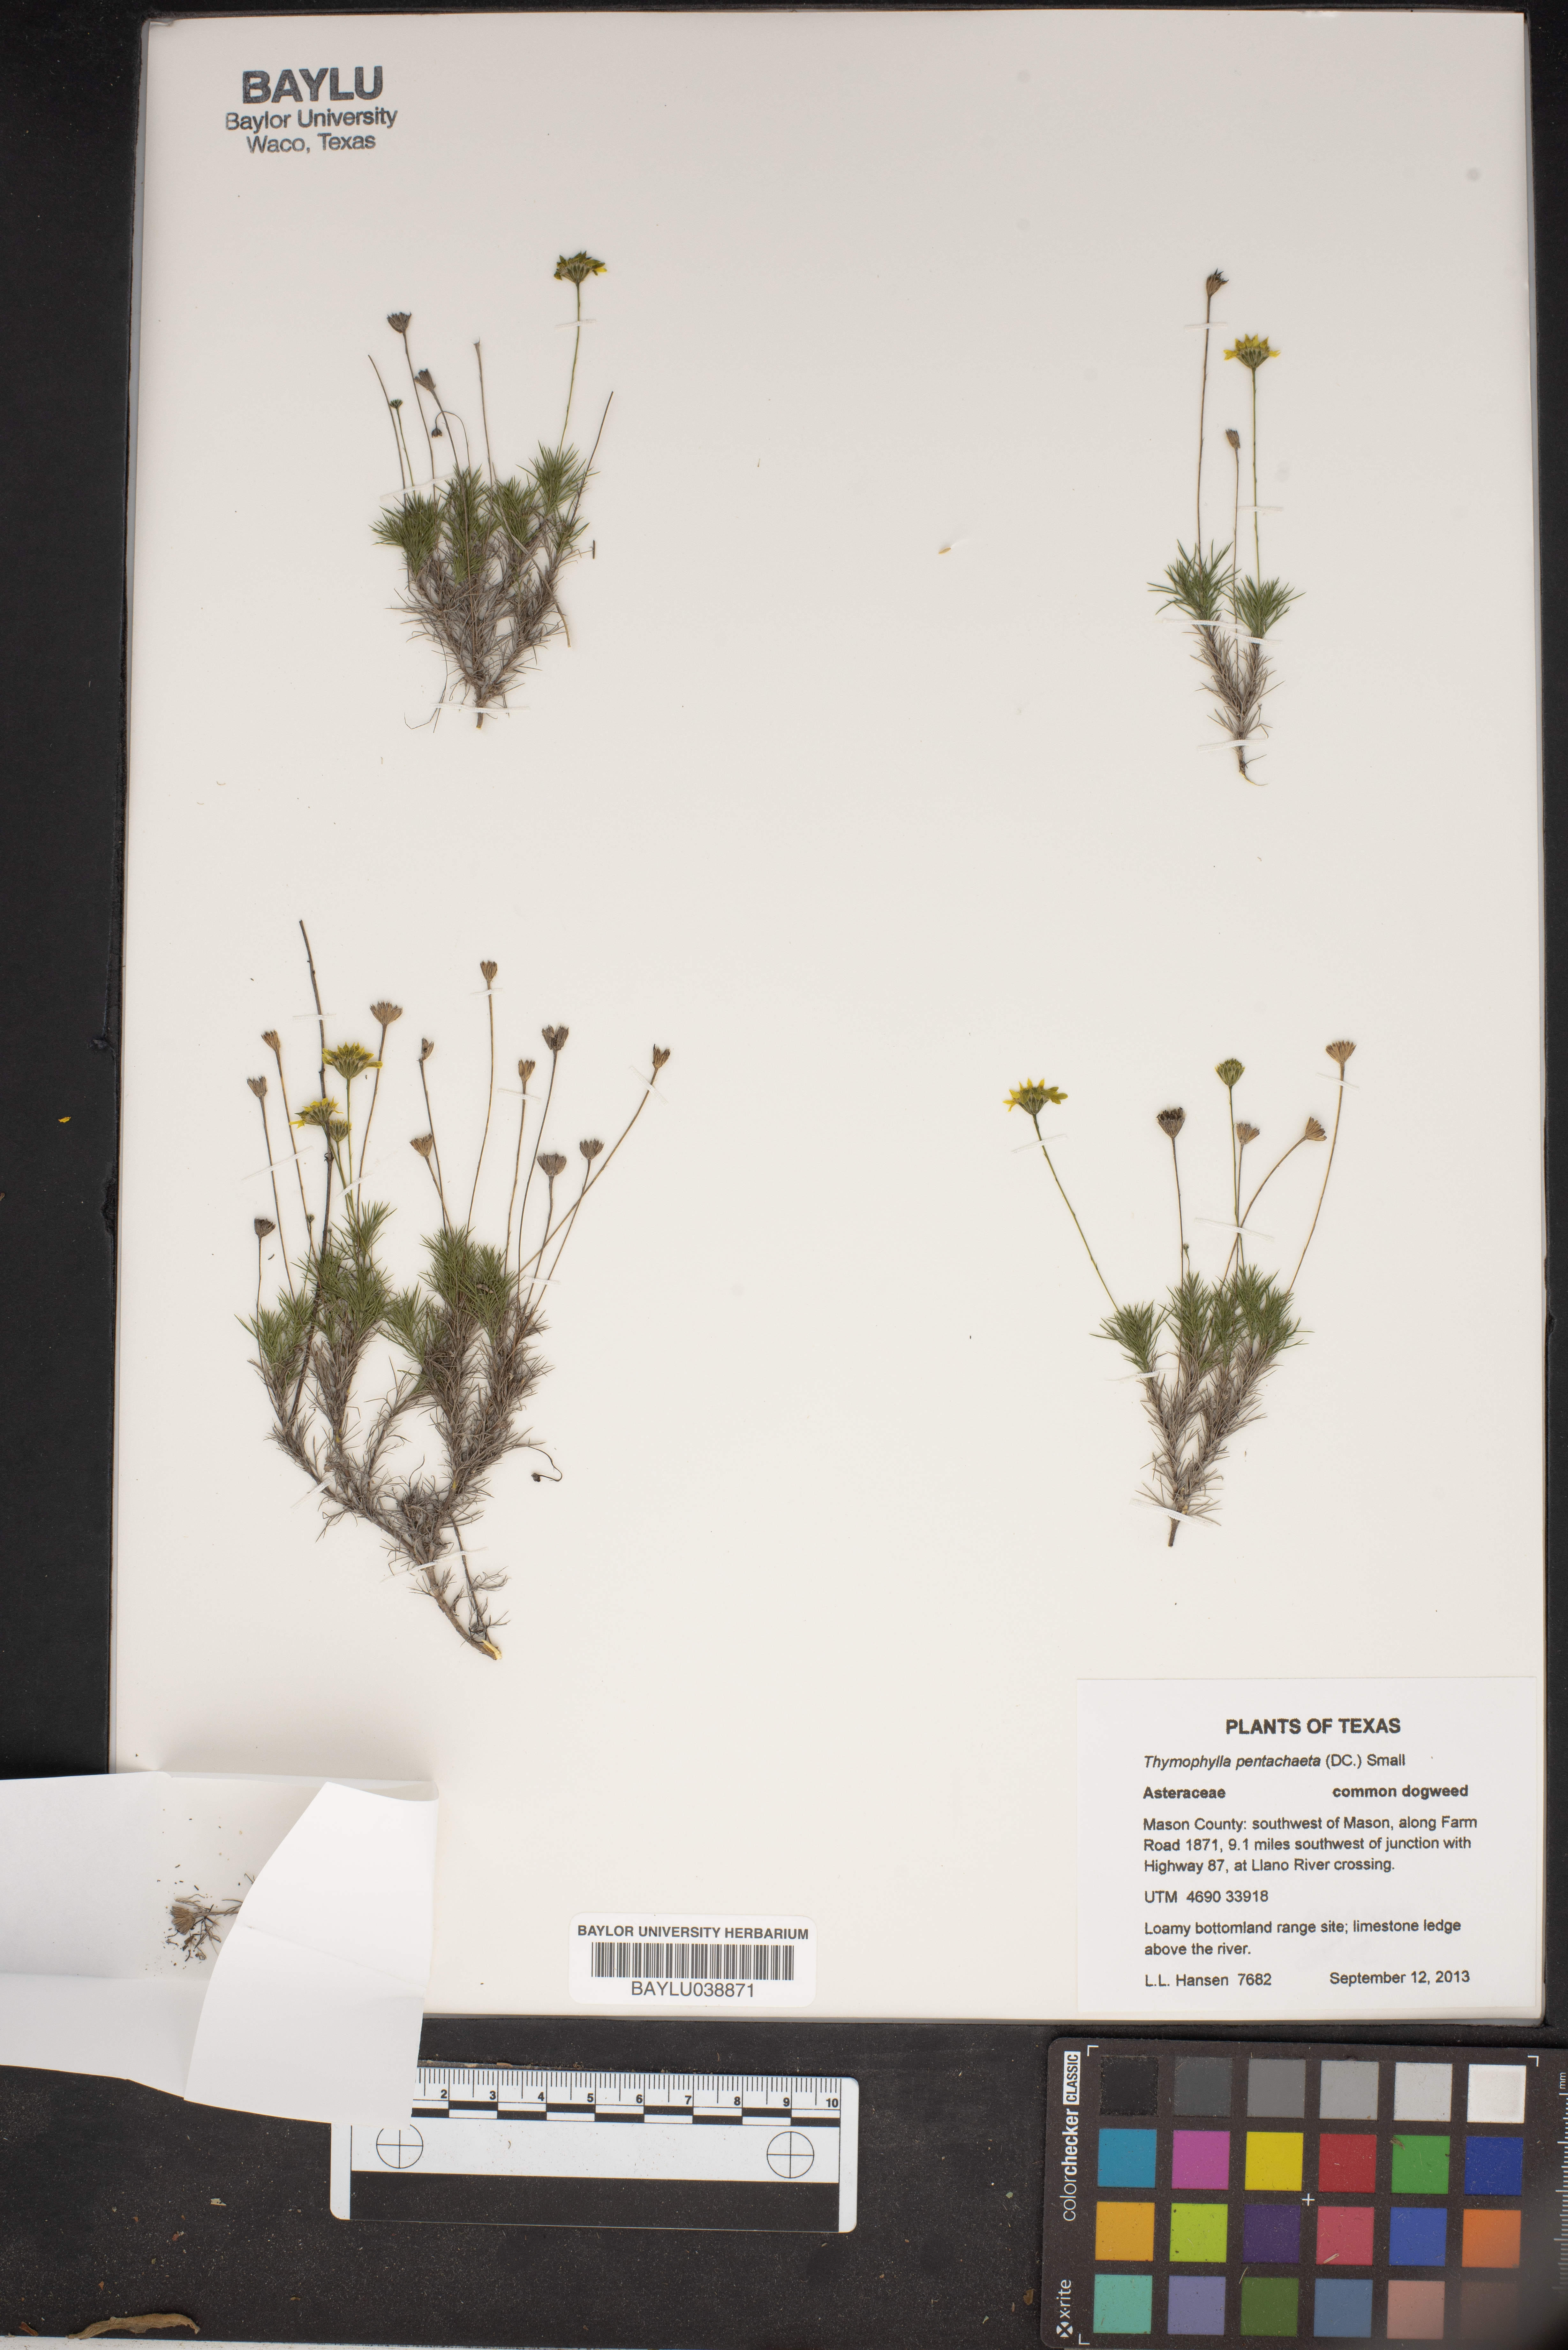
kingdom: Plantae
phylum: Tracheophyta
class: Magnoliopsida
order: Asterales
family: Asteraceae
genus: Thymophylla
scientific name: Thymophylla pentachaeta
